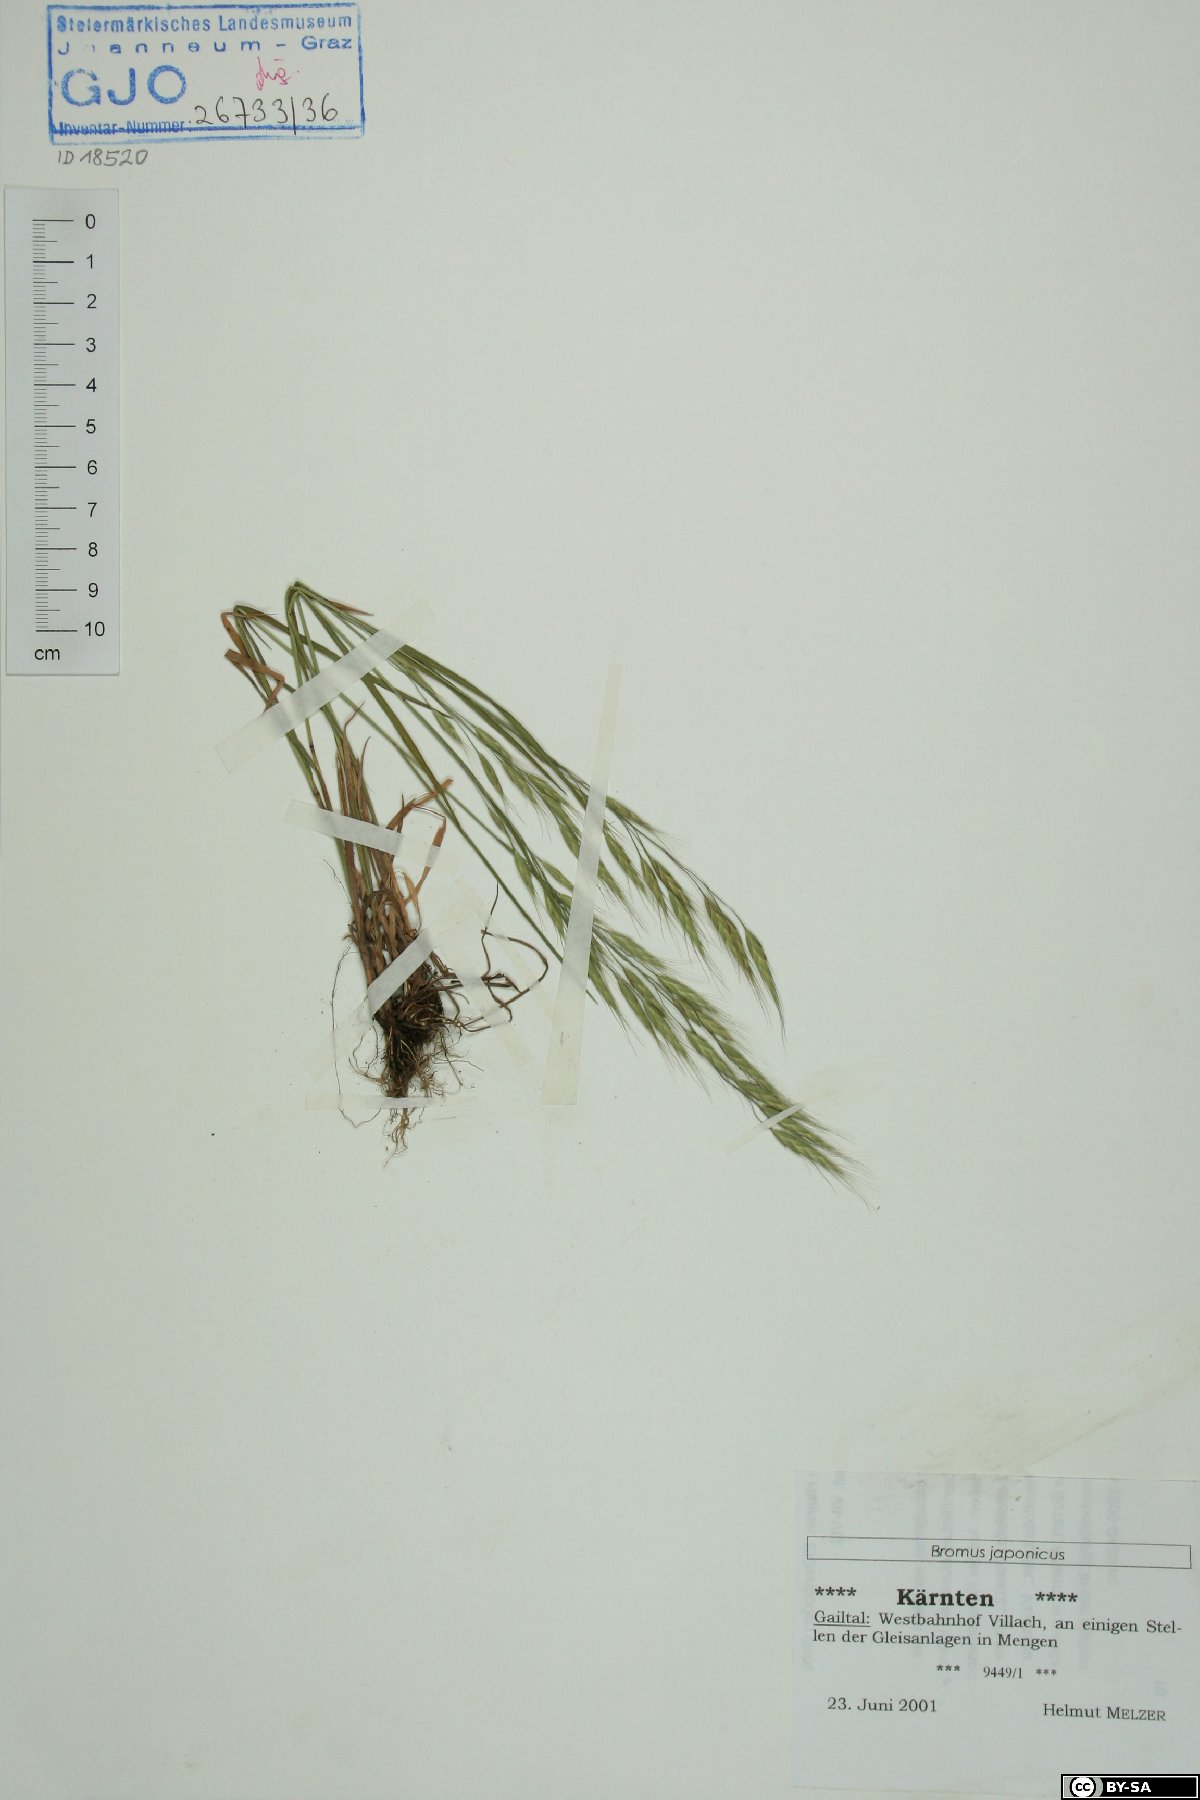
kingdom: Plantae
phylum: Tracheophyta
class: Liliopsida
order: Poales
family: Poaceae
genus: Bromus
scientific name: Bromus japonicus
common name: Japanese brome
